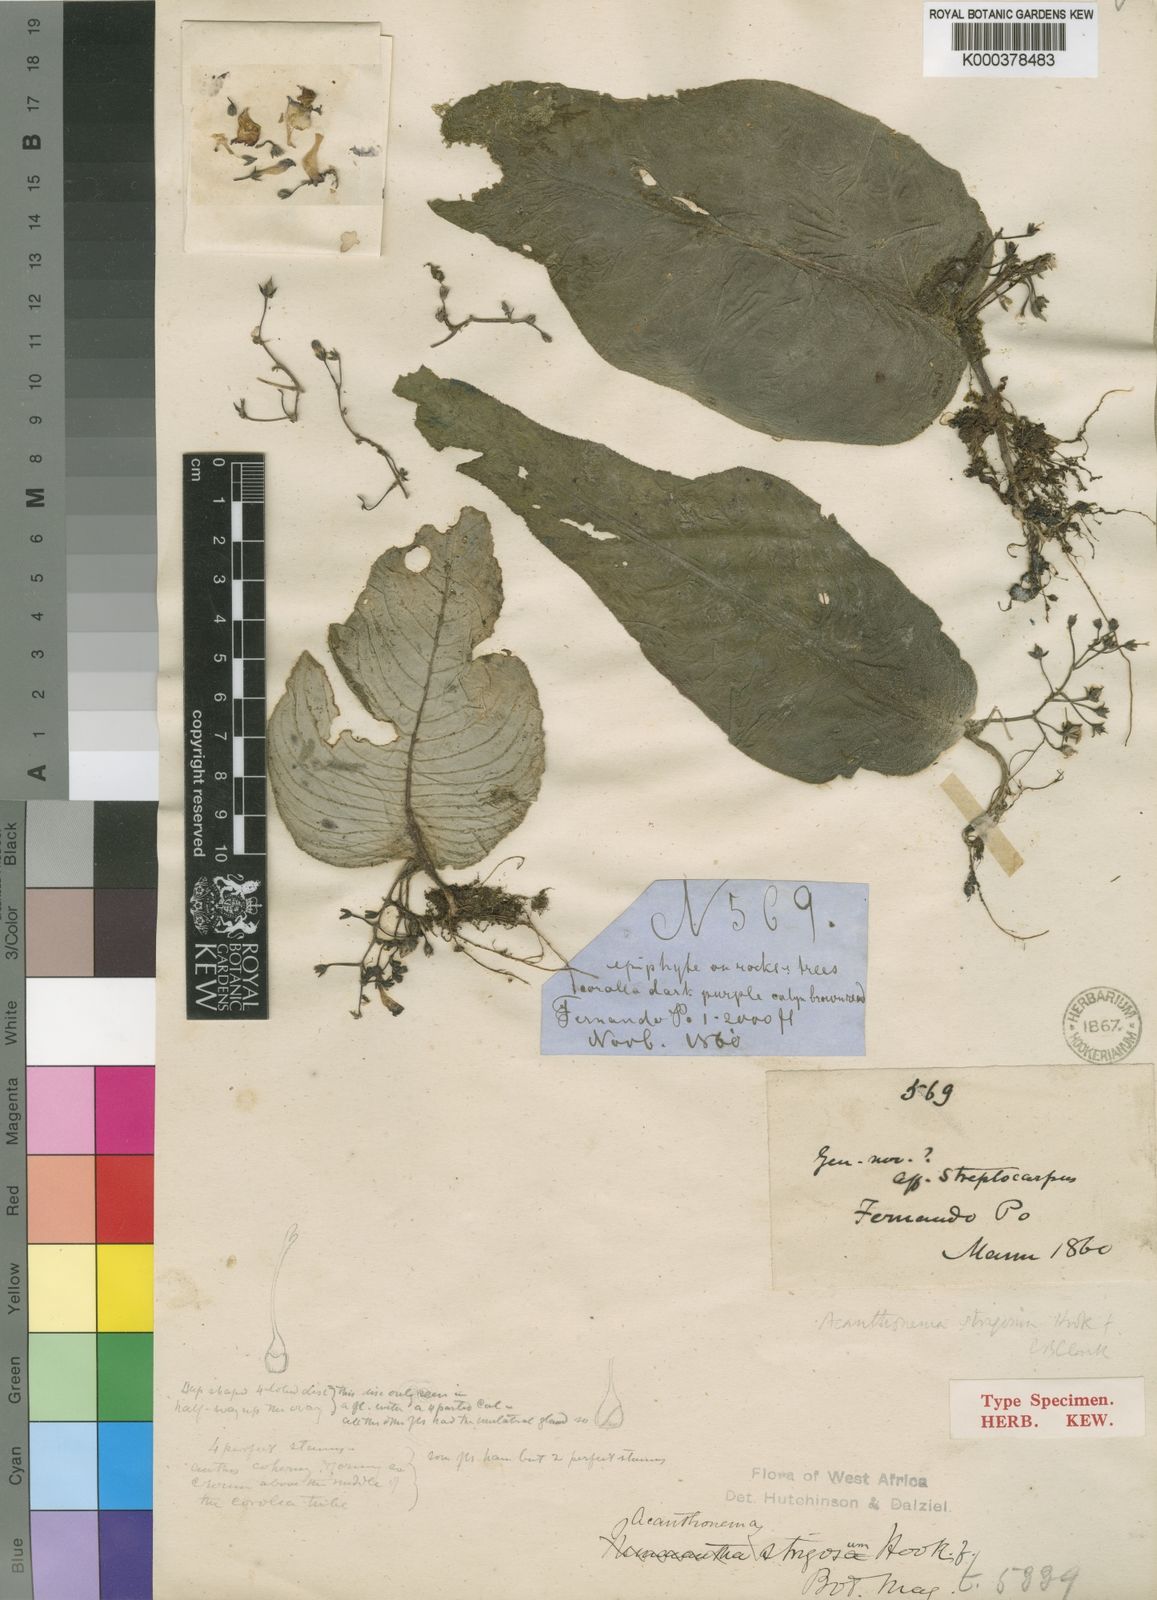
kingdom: Plantae
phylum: Tracheophyta
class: Magnoliopsida
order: Lamiales
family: Gesneriaceae
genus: Streptocarpus
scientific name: Streptocarpus strigosus
